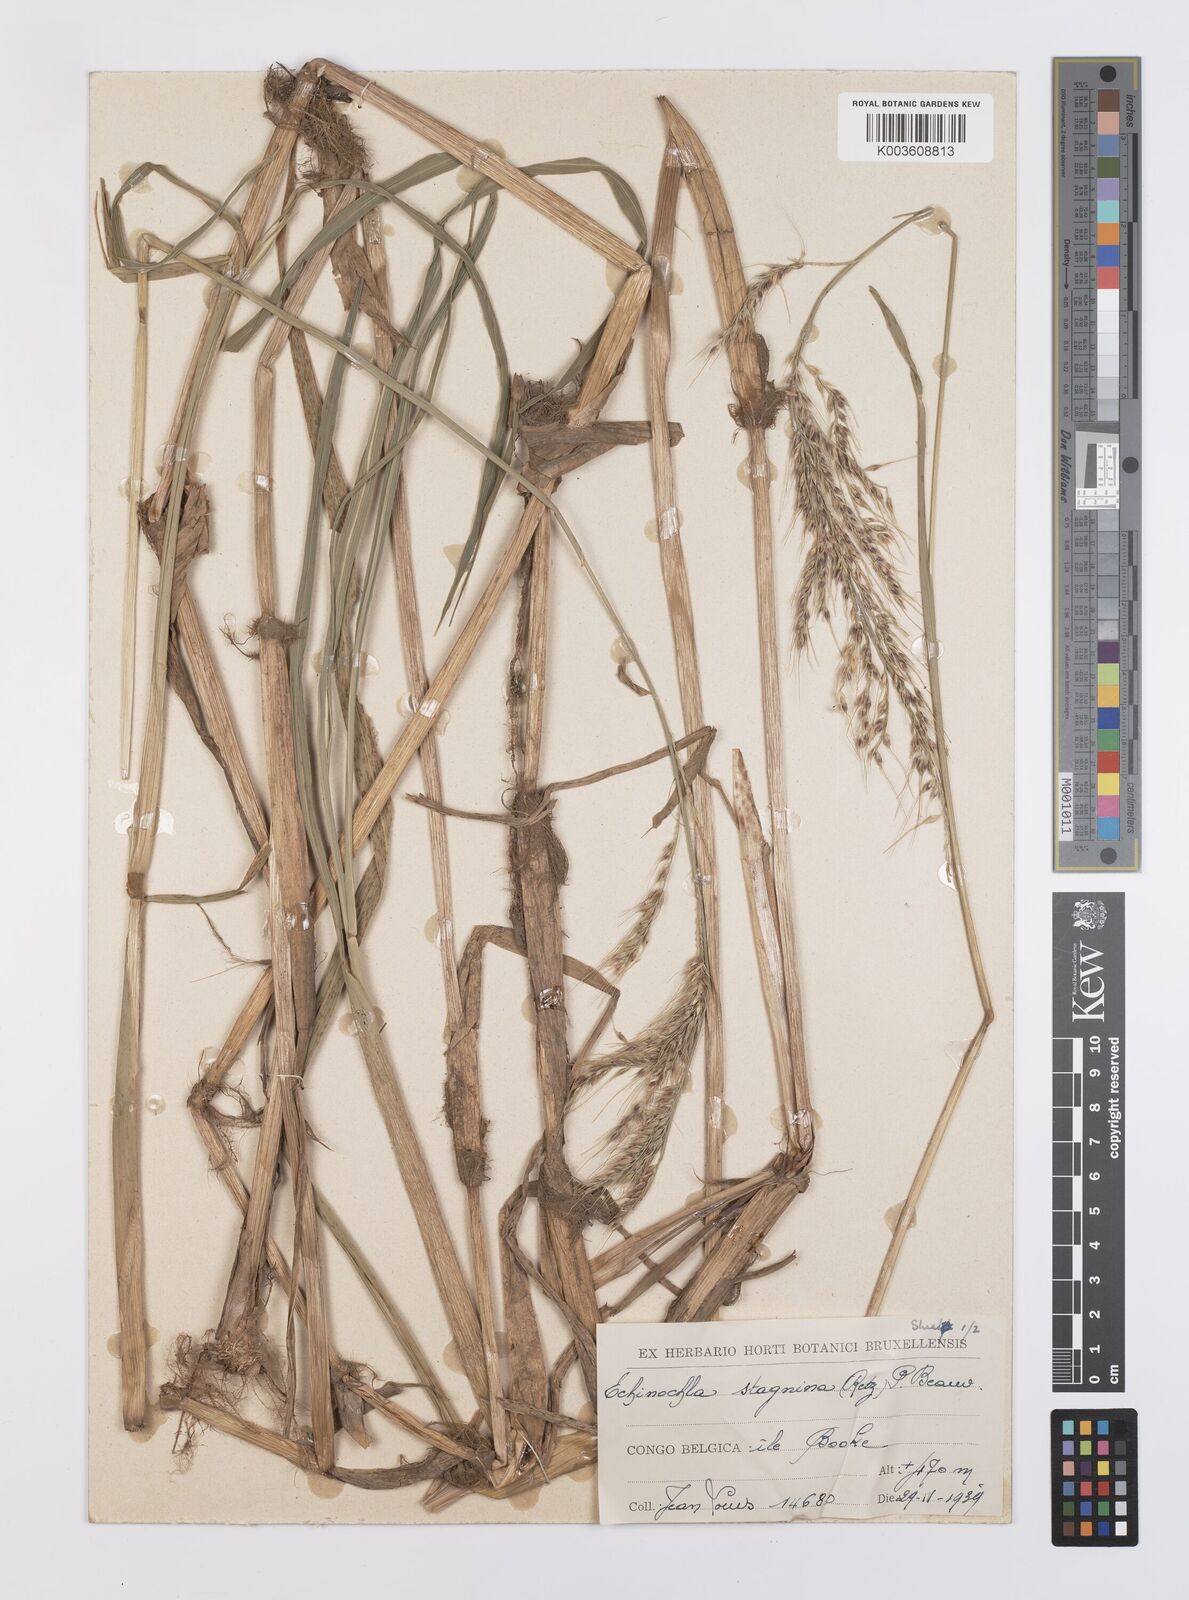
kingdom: Plantae
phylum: Tracheophyta
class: Liliopsida
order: Poales
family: Poaceae
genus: Echinochloa
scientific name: Echinochloa stagnina
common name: Burgu grass
